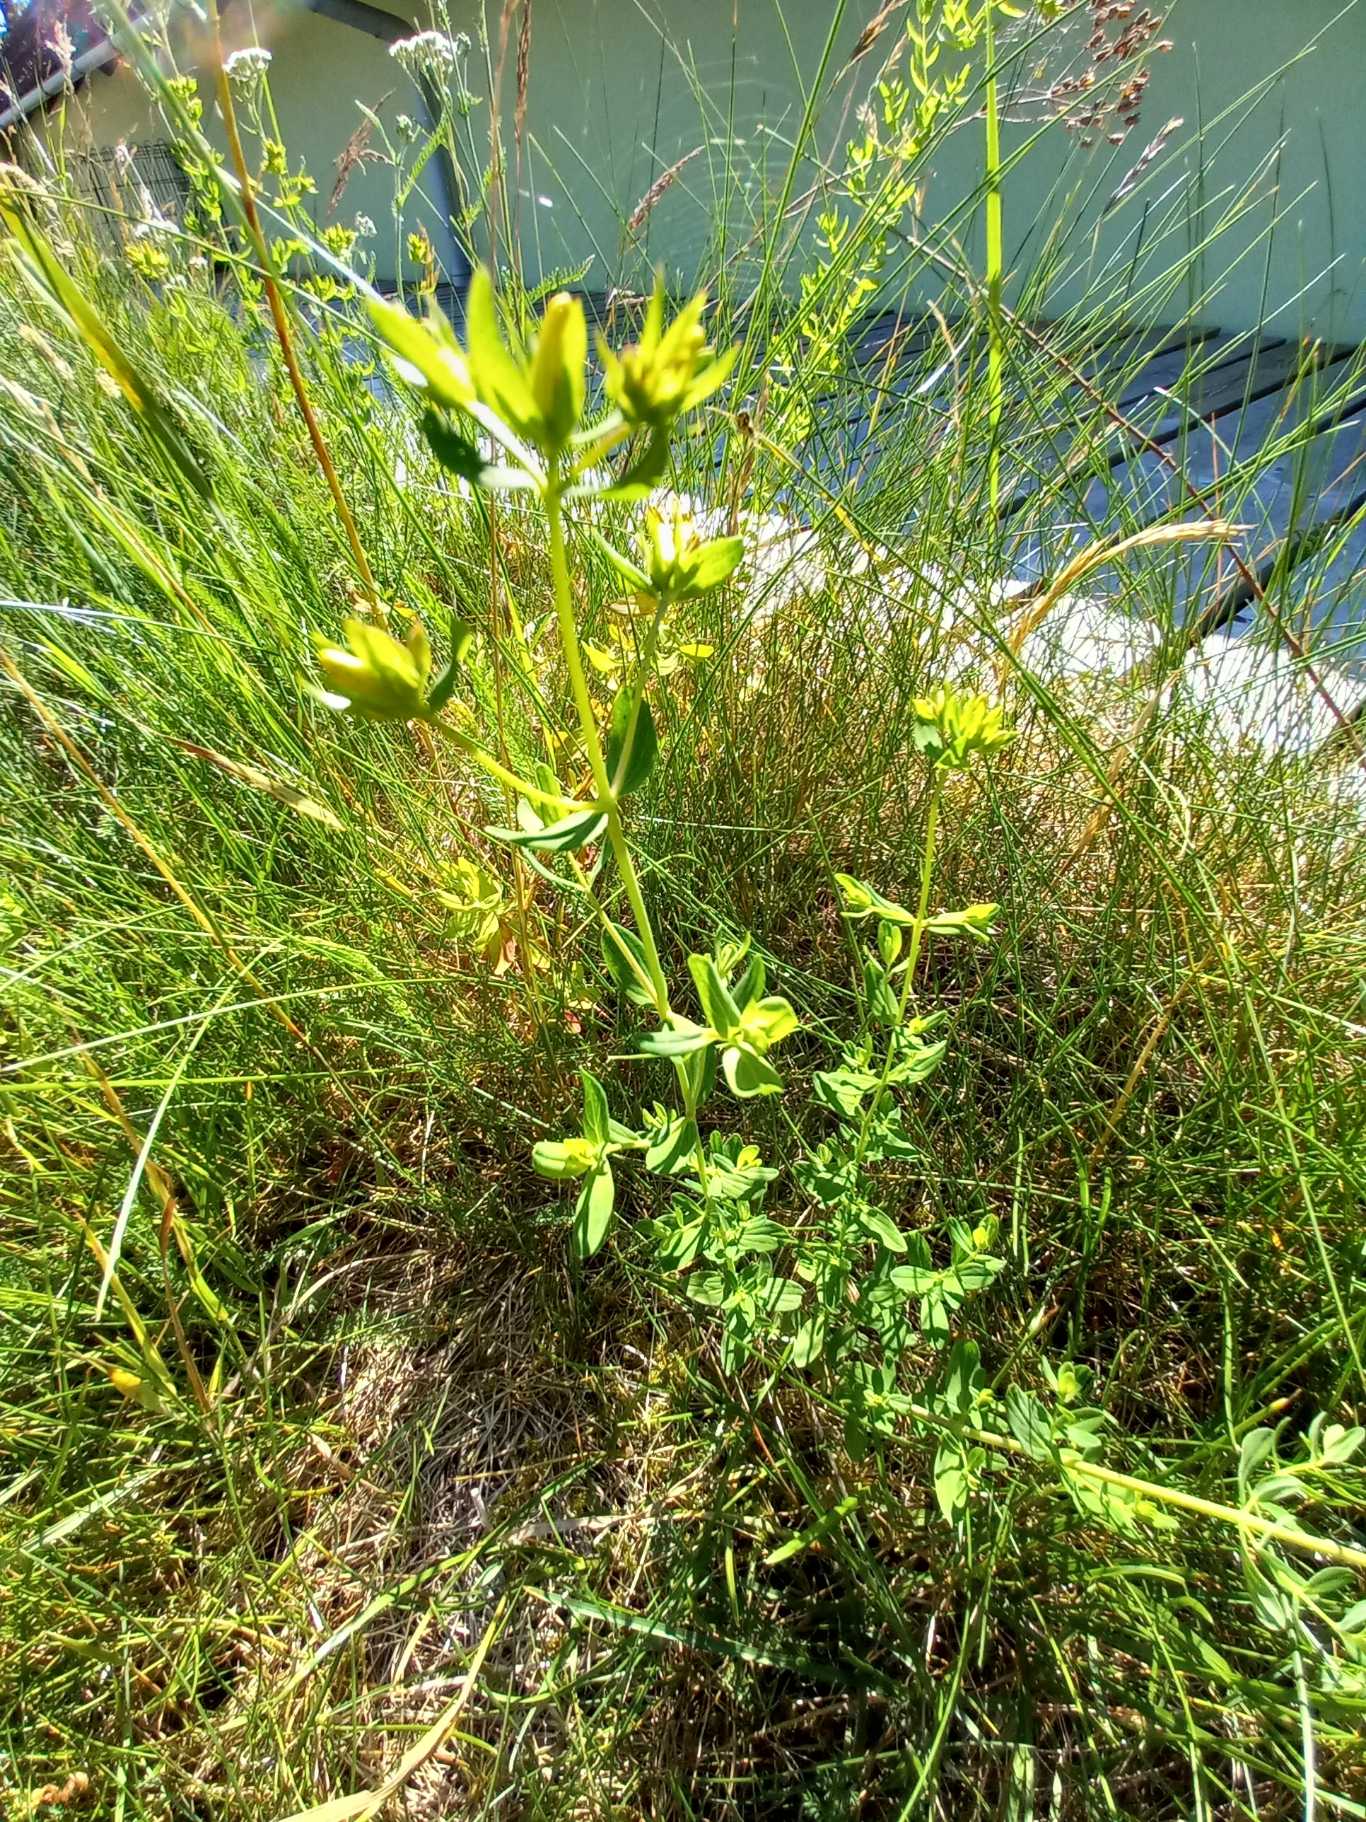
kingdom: Plantae
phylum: Tracheophyta
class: Magnoliopsida
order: Malpighiales
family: Hypericaceae
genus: Hypericum
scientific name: Hypericum perforatum
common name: Prikbladet perikon
